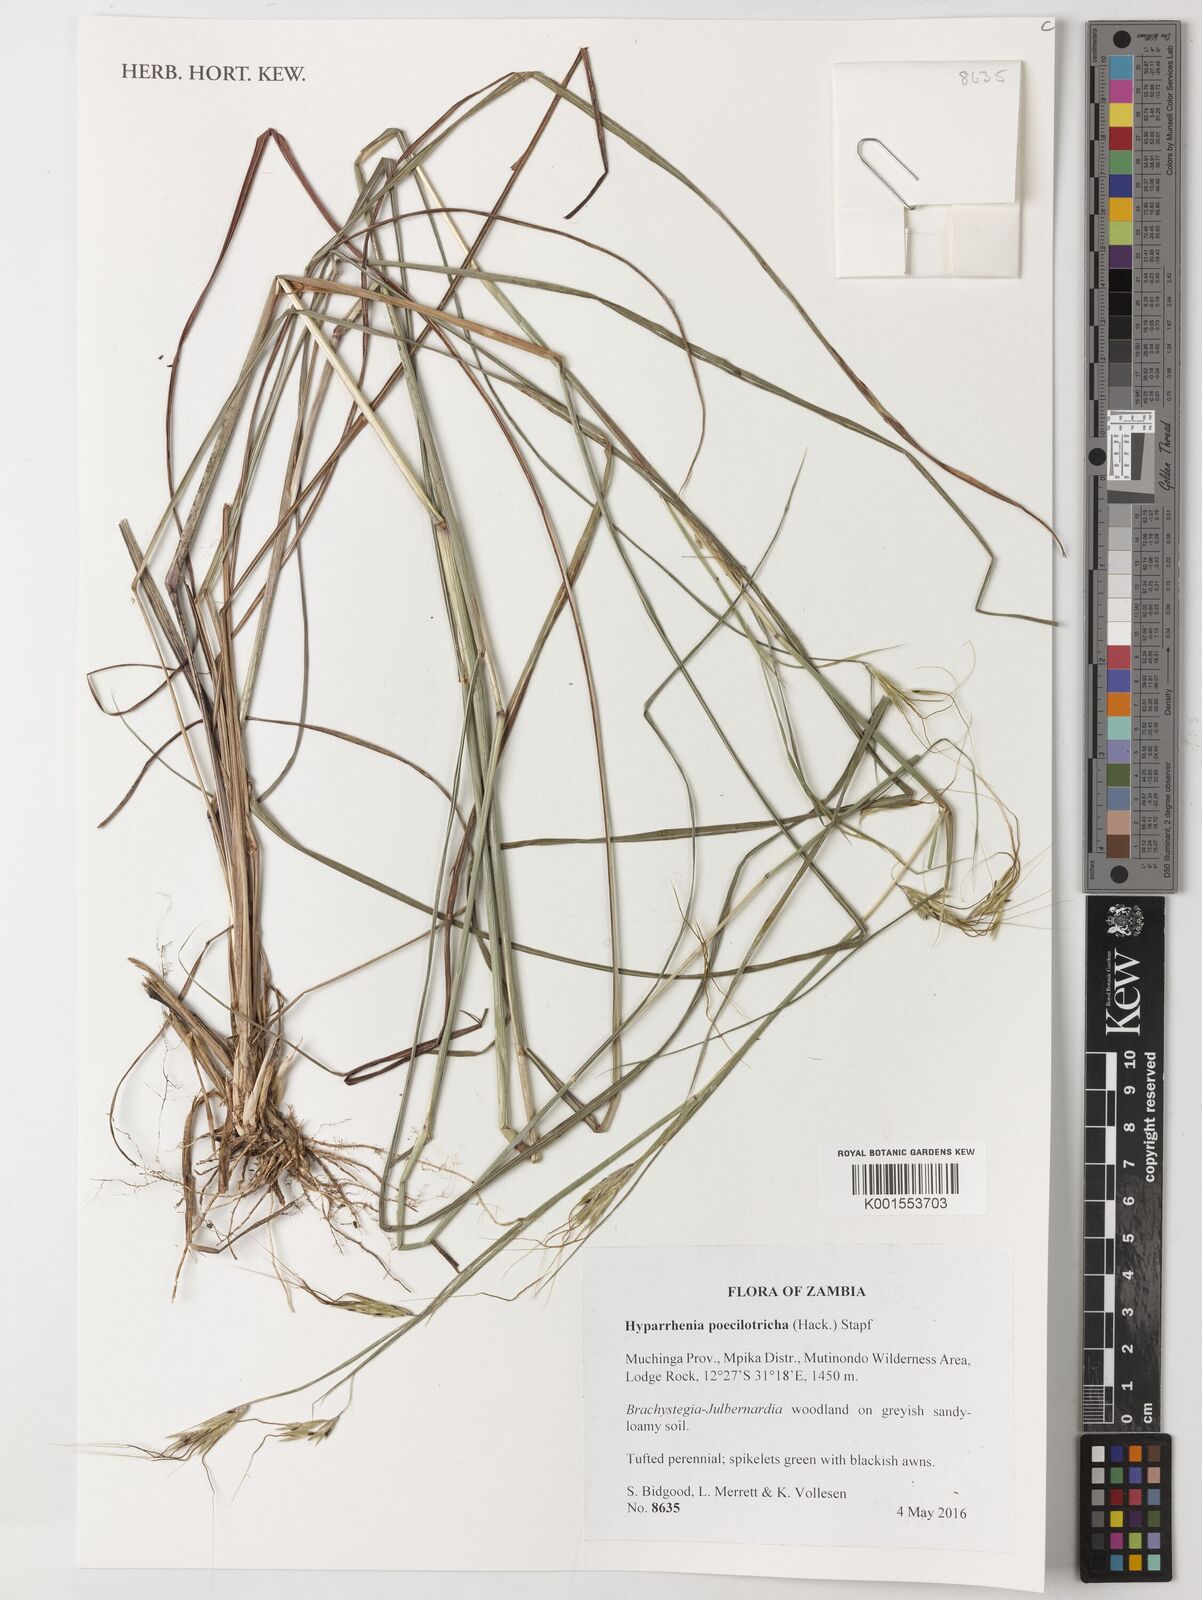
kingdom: Plantae
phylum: Tracheophyta
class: Liliopsida
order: Poales
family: Poaceae
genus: Hyparrhenia
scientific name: Hyparrhenia poecilotricha
